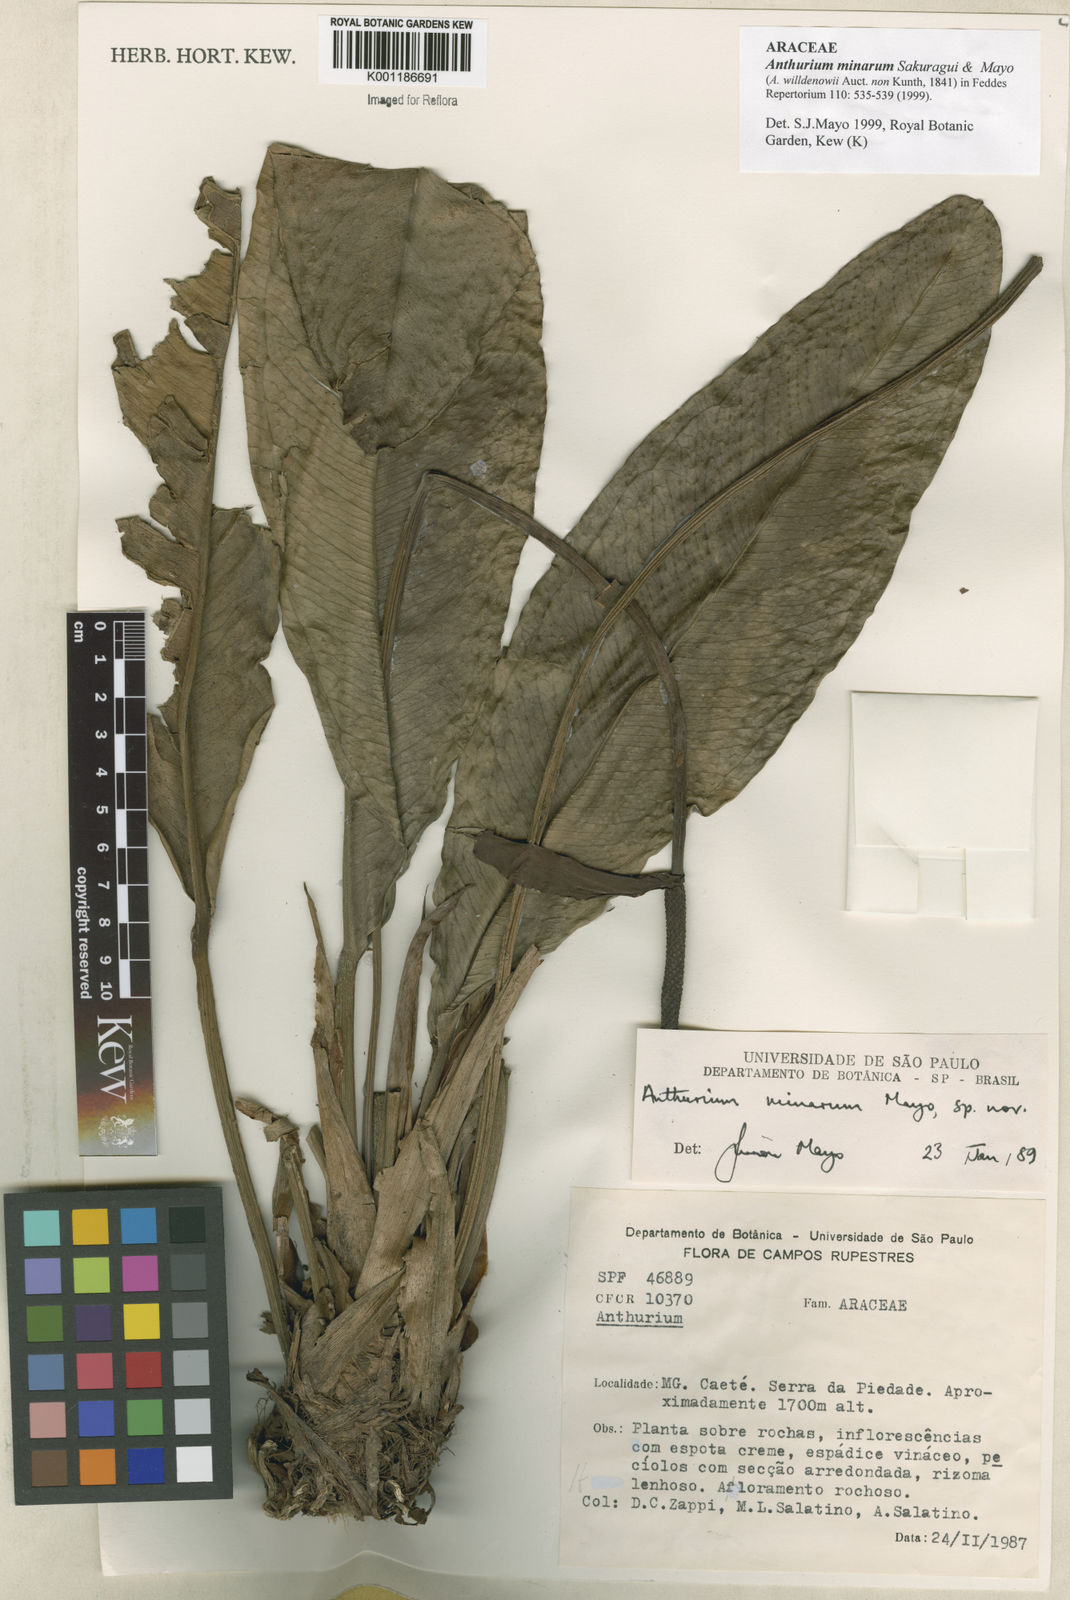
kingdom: Plantae
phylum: Tracheophyta
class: Liliopsida
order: Alismatales
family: Araceae
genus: Anthurium
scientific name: Anthurium minarum
